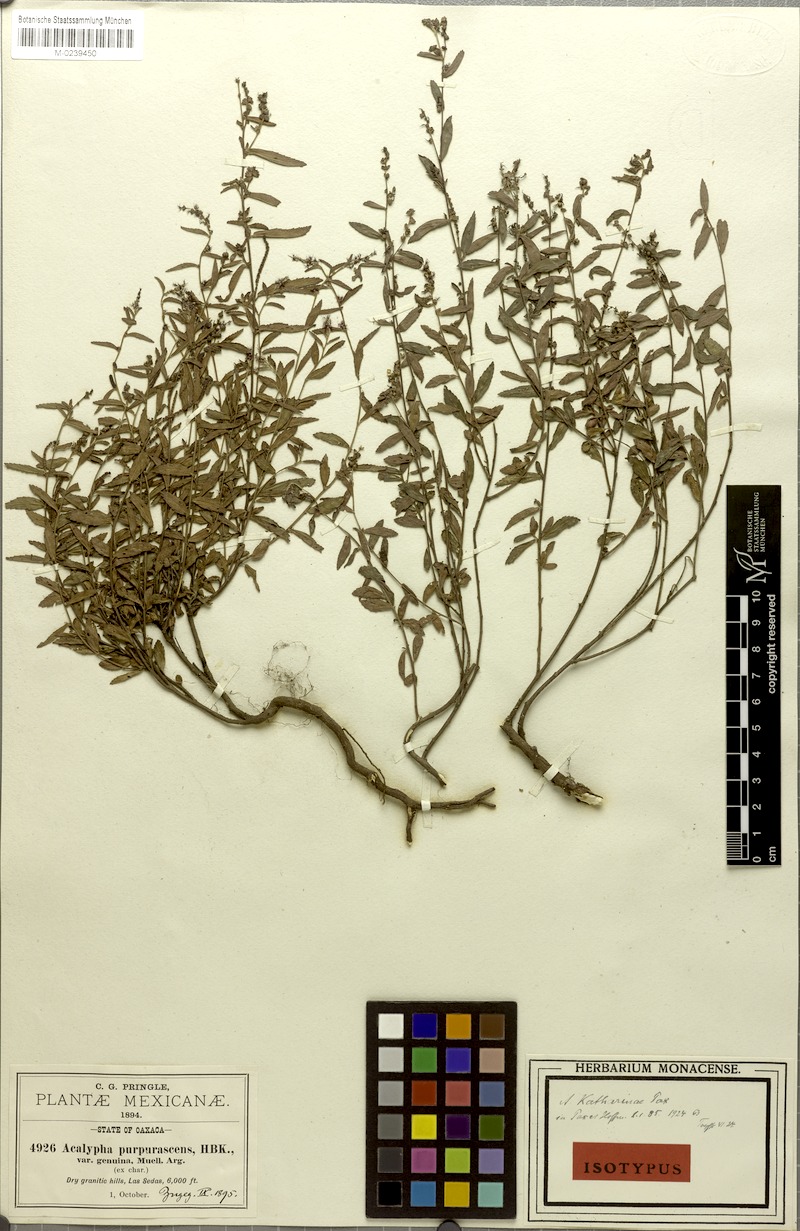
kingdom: Plantae
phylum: Tracheophyta
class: Magnoliopsida
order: Malpighiales
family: Euphorbiaceae
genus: Acalypha
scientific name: Acalypha katharinae
